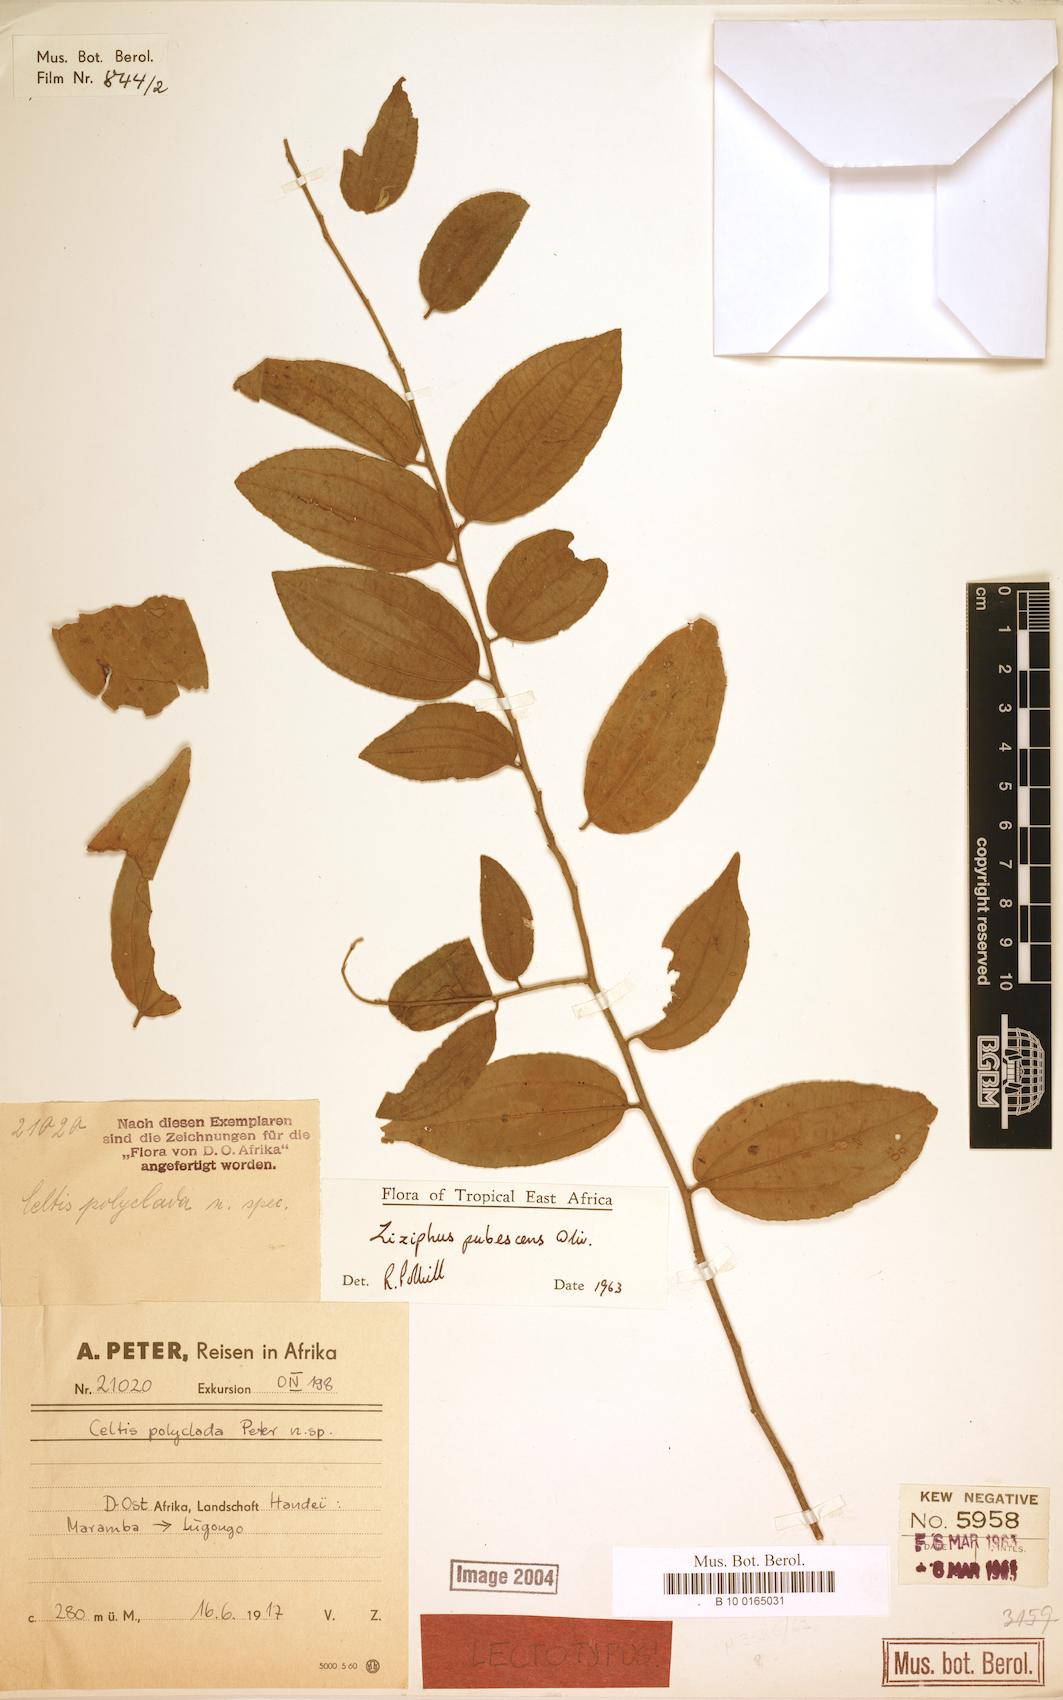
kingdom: Plantae
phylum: Tracheophyta
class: Magnoliopsida
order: Rosales
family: Rhamnaceae
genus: Ziziphus
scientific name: Ziziphus pubescens
